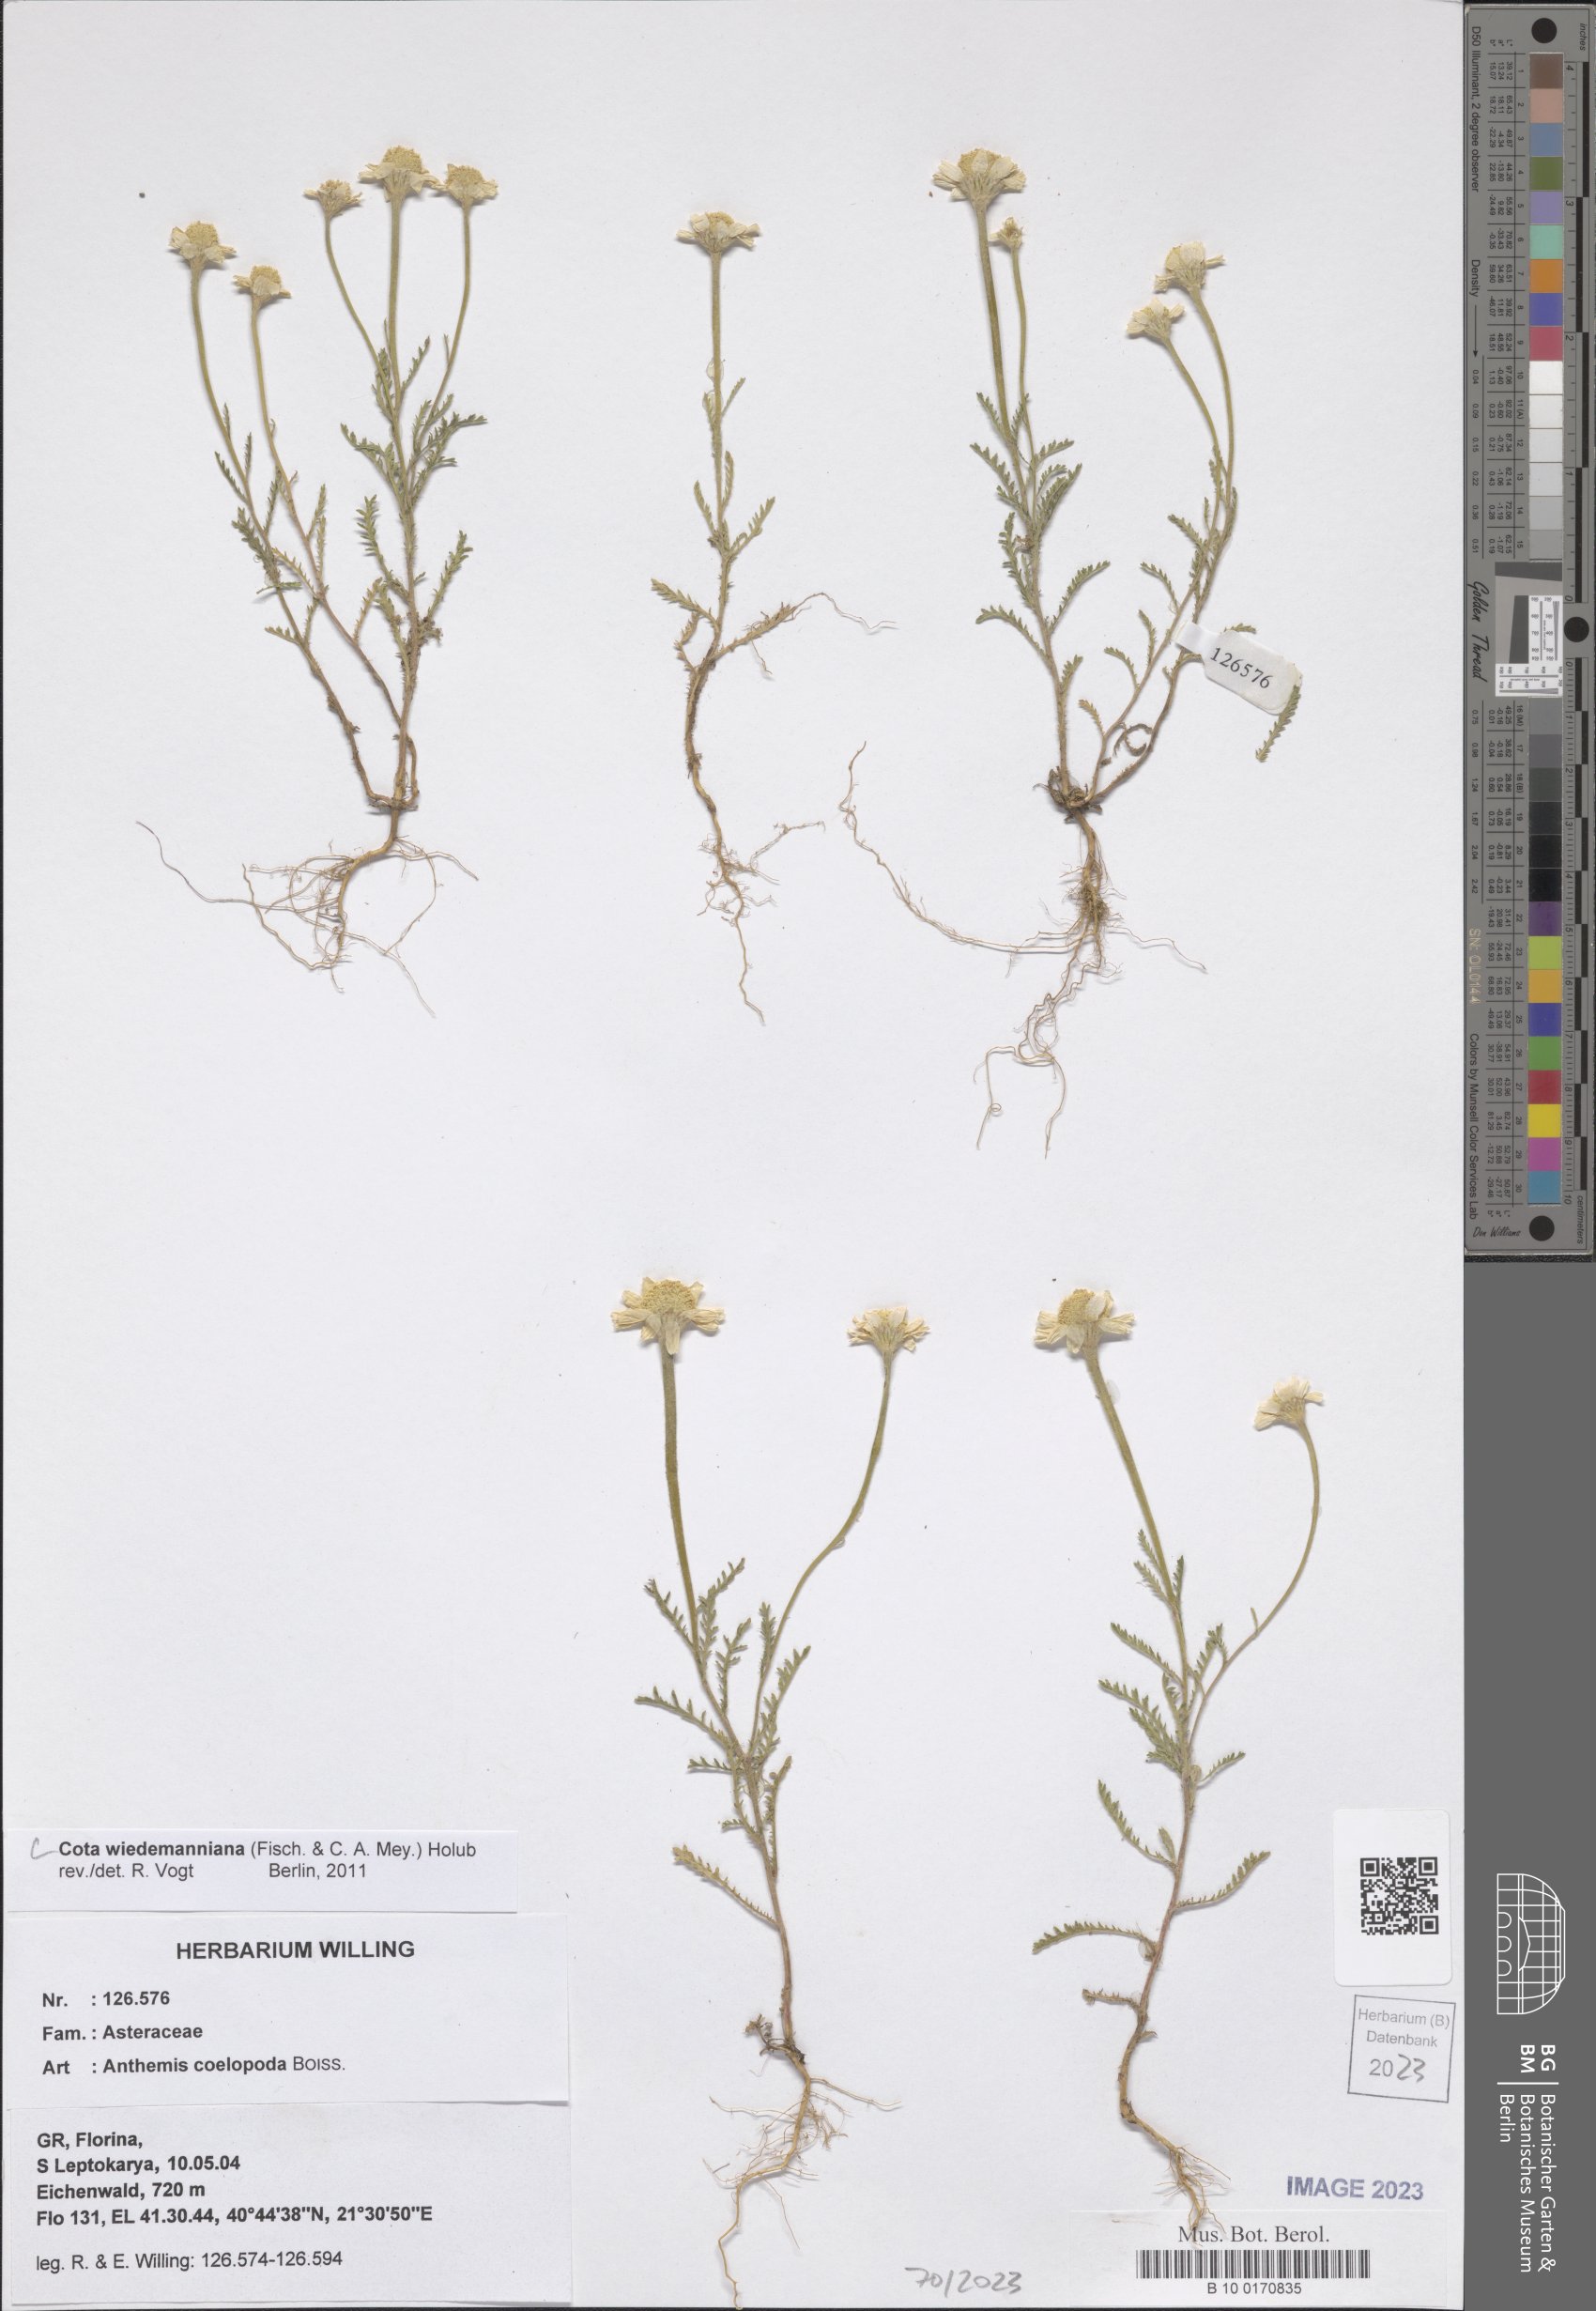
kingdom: Plantae
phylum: Tracheophyta
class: Magnoliopsida
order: Asterales
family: Asteraceae
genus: Cota
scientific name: Cota wiedemanniana
